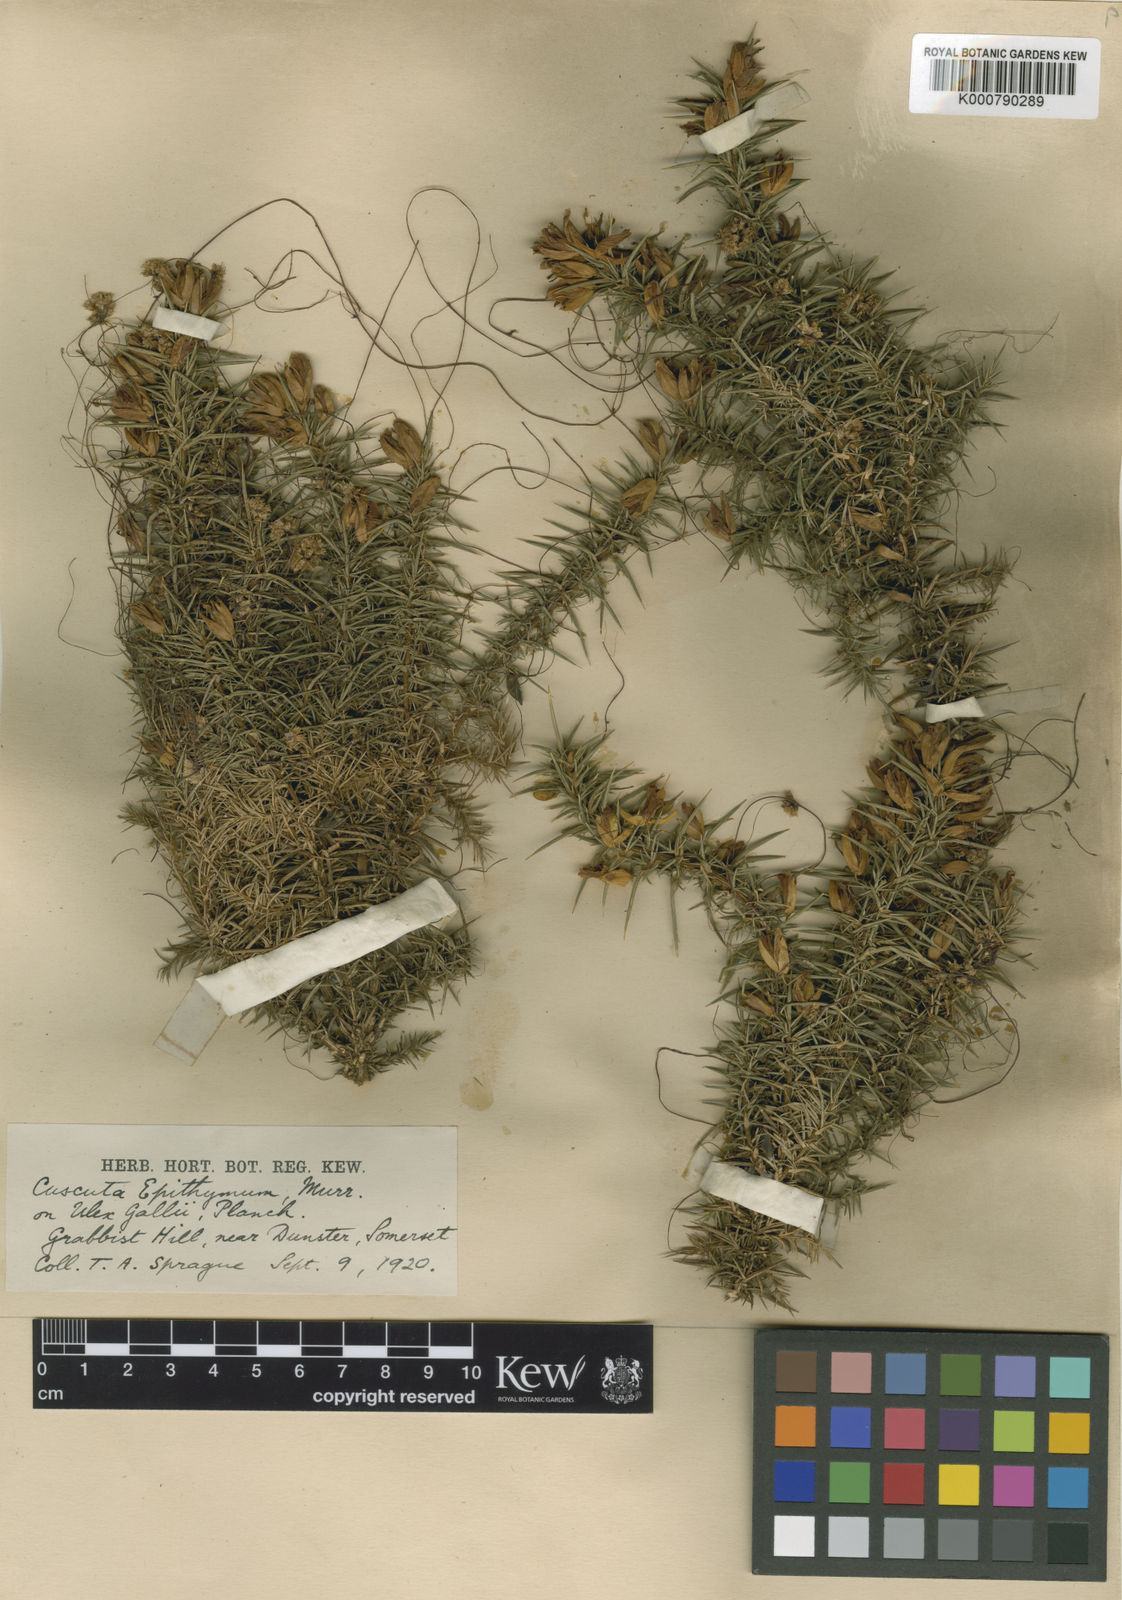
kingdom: Plantae
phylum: Tracheophyta
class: Magnoliopsida
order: Solanales
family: Convolvulaceae
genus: Cuscuta
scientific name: Cuscuta epithymum
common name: Clover dodder
